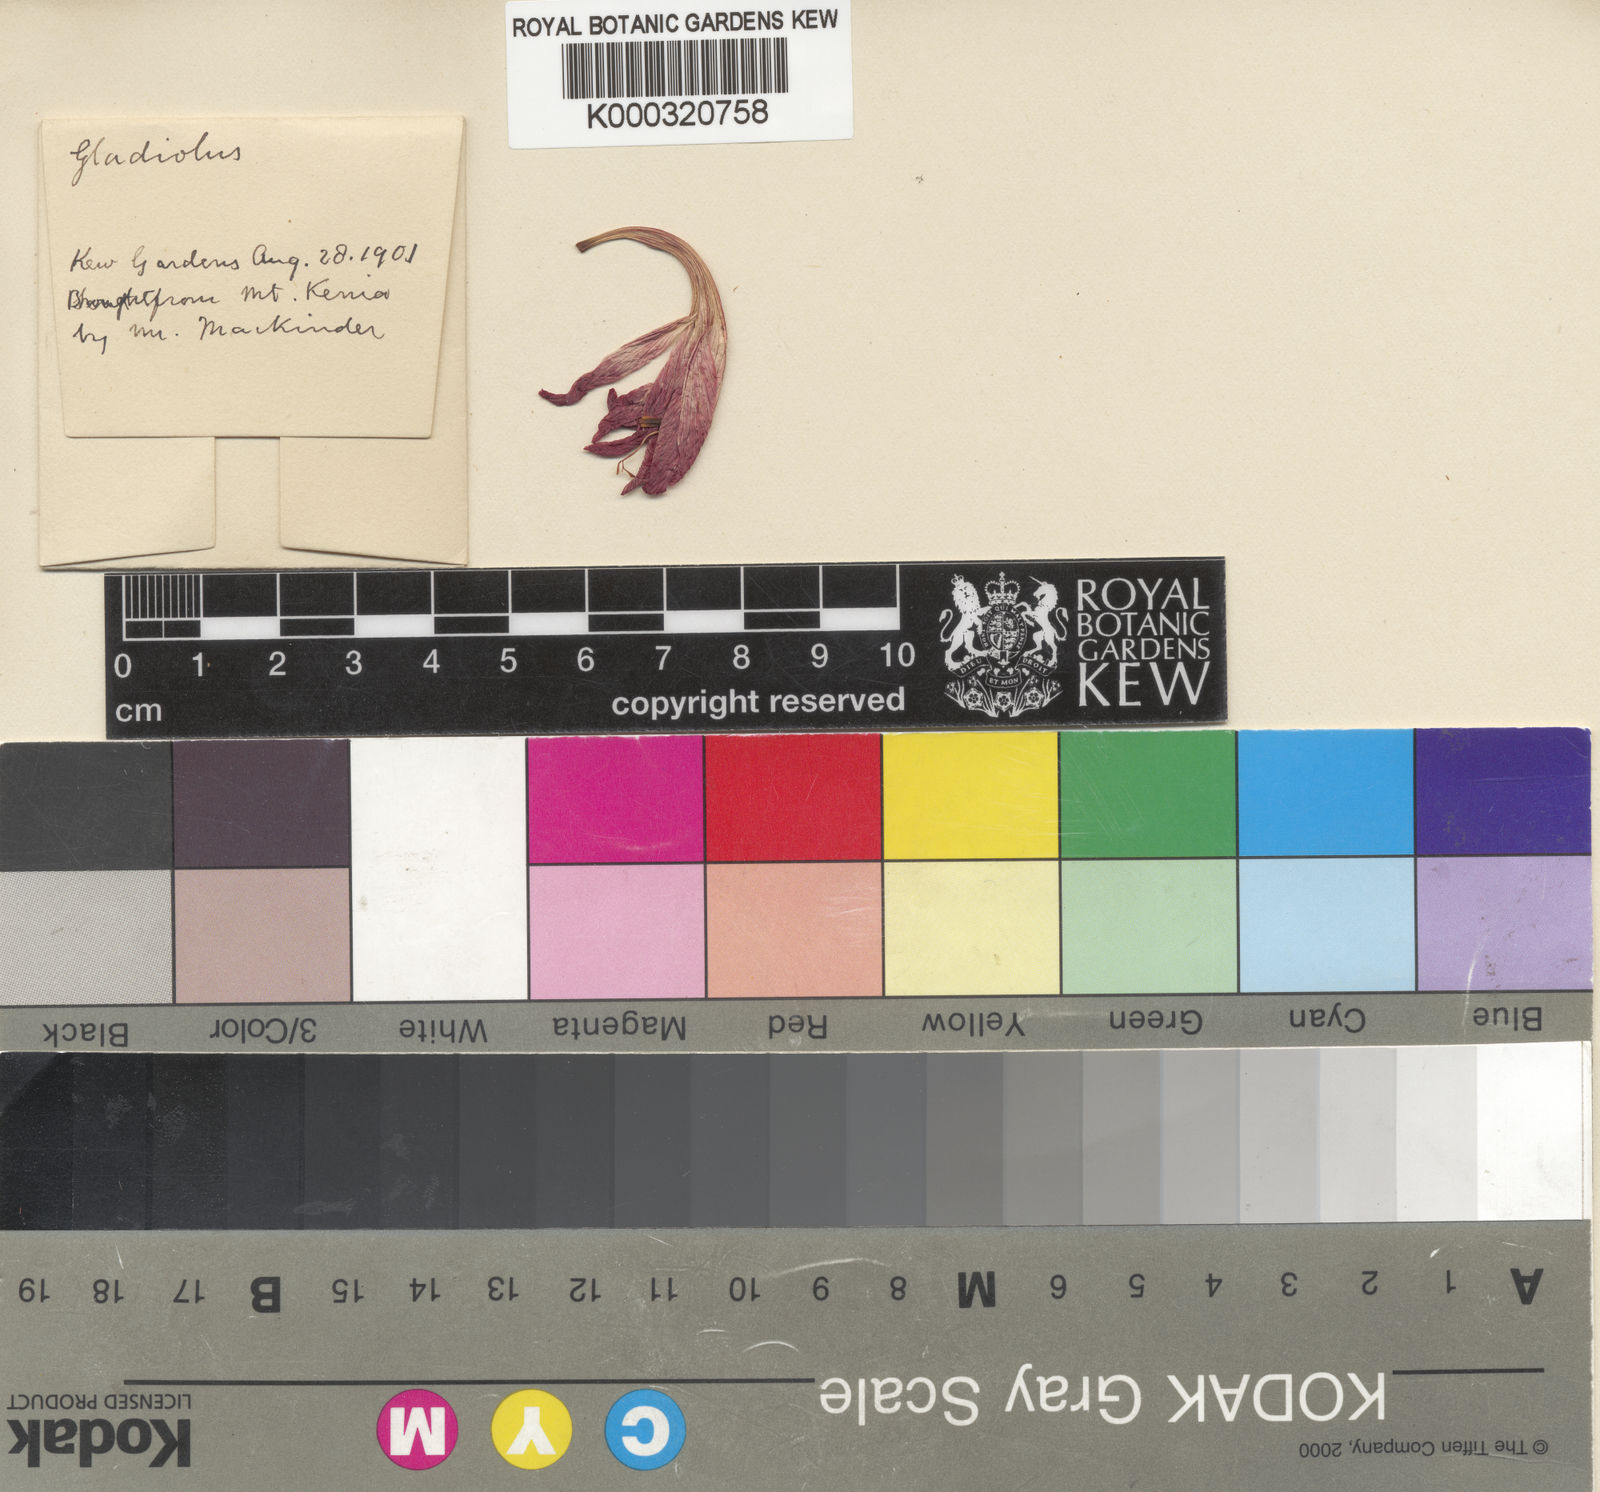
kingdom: Plantae
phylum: Tracheophyta
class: Liliopsida
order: Asparagales
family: Iridaceae
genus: Gladiolus
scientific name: Gladiolus watsonioides
